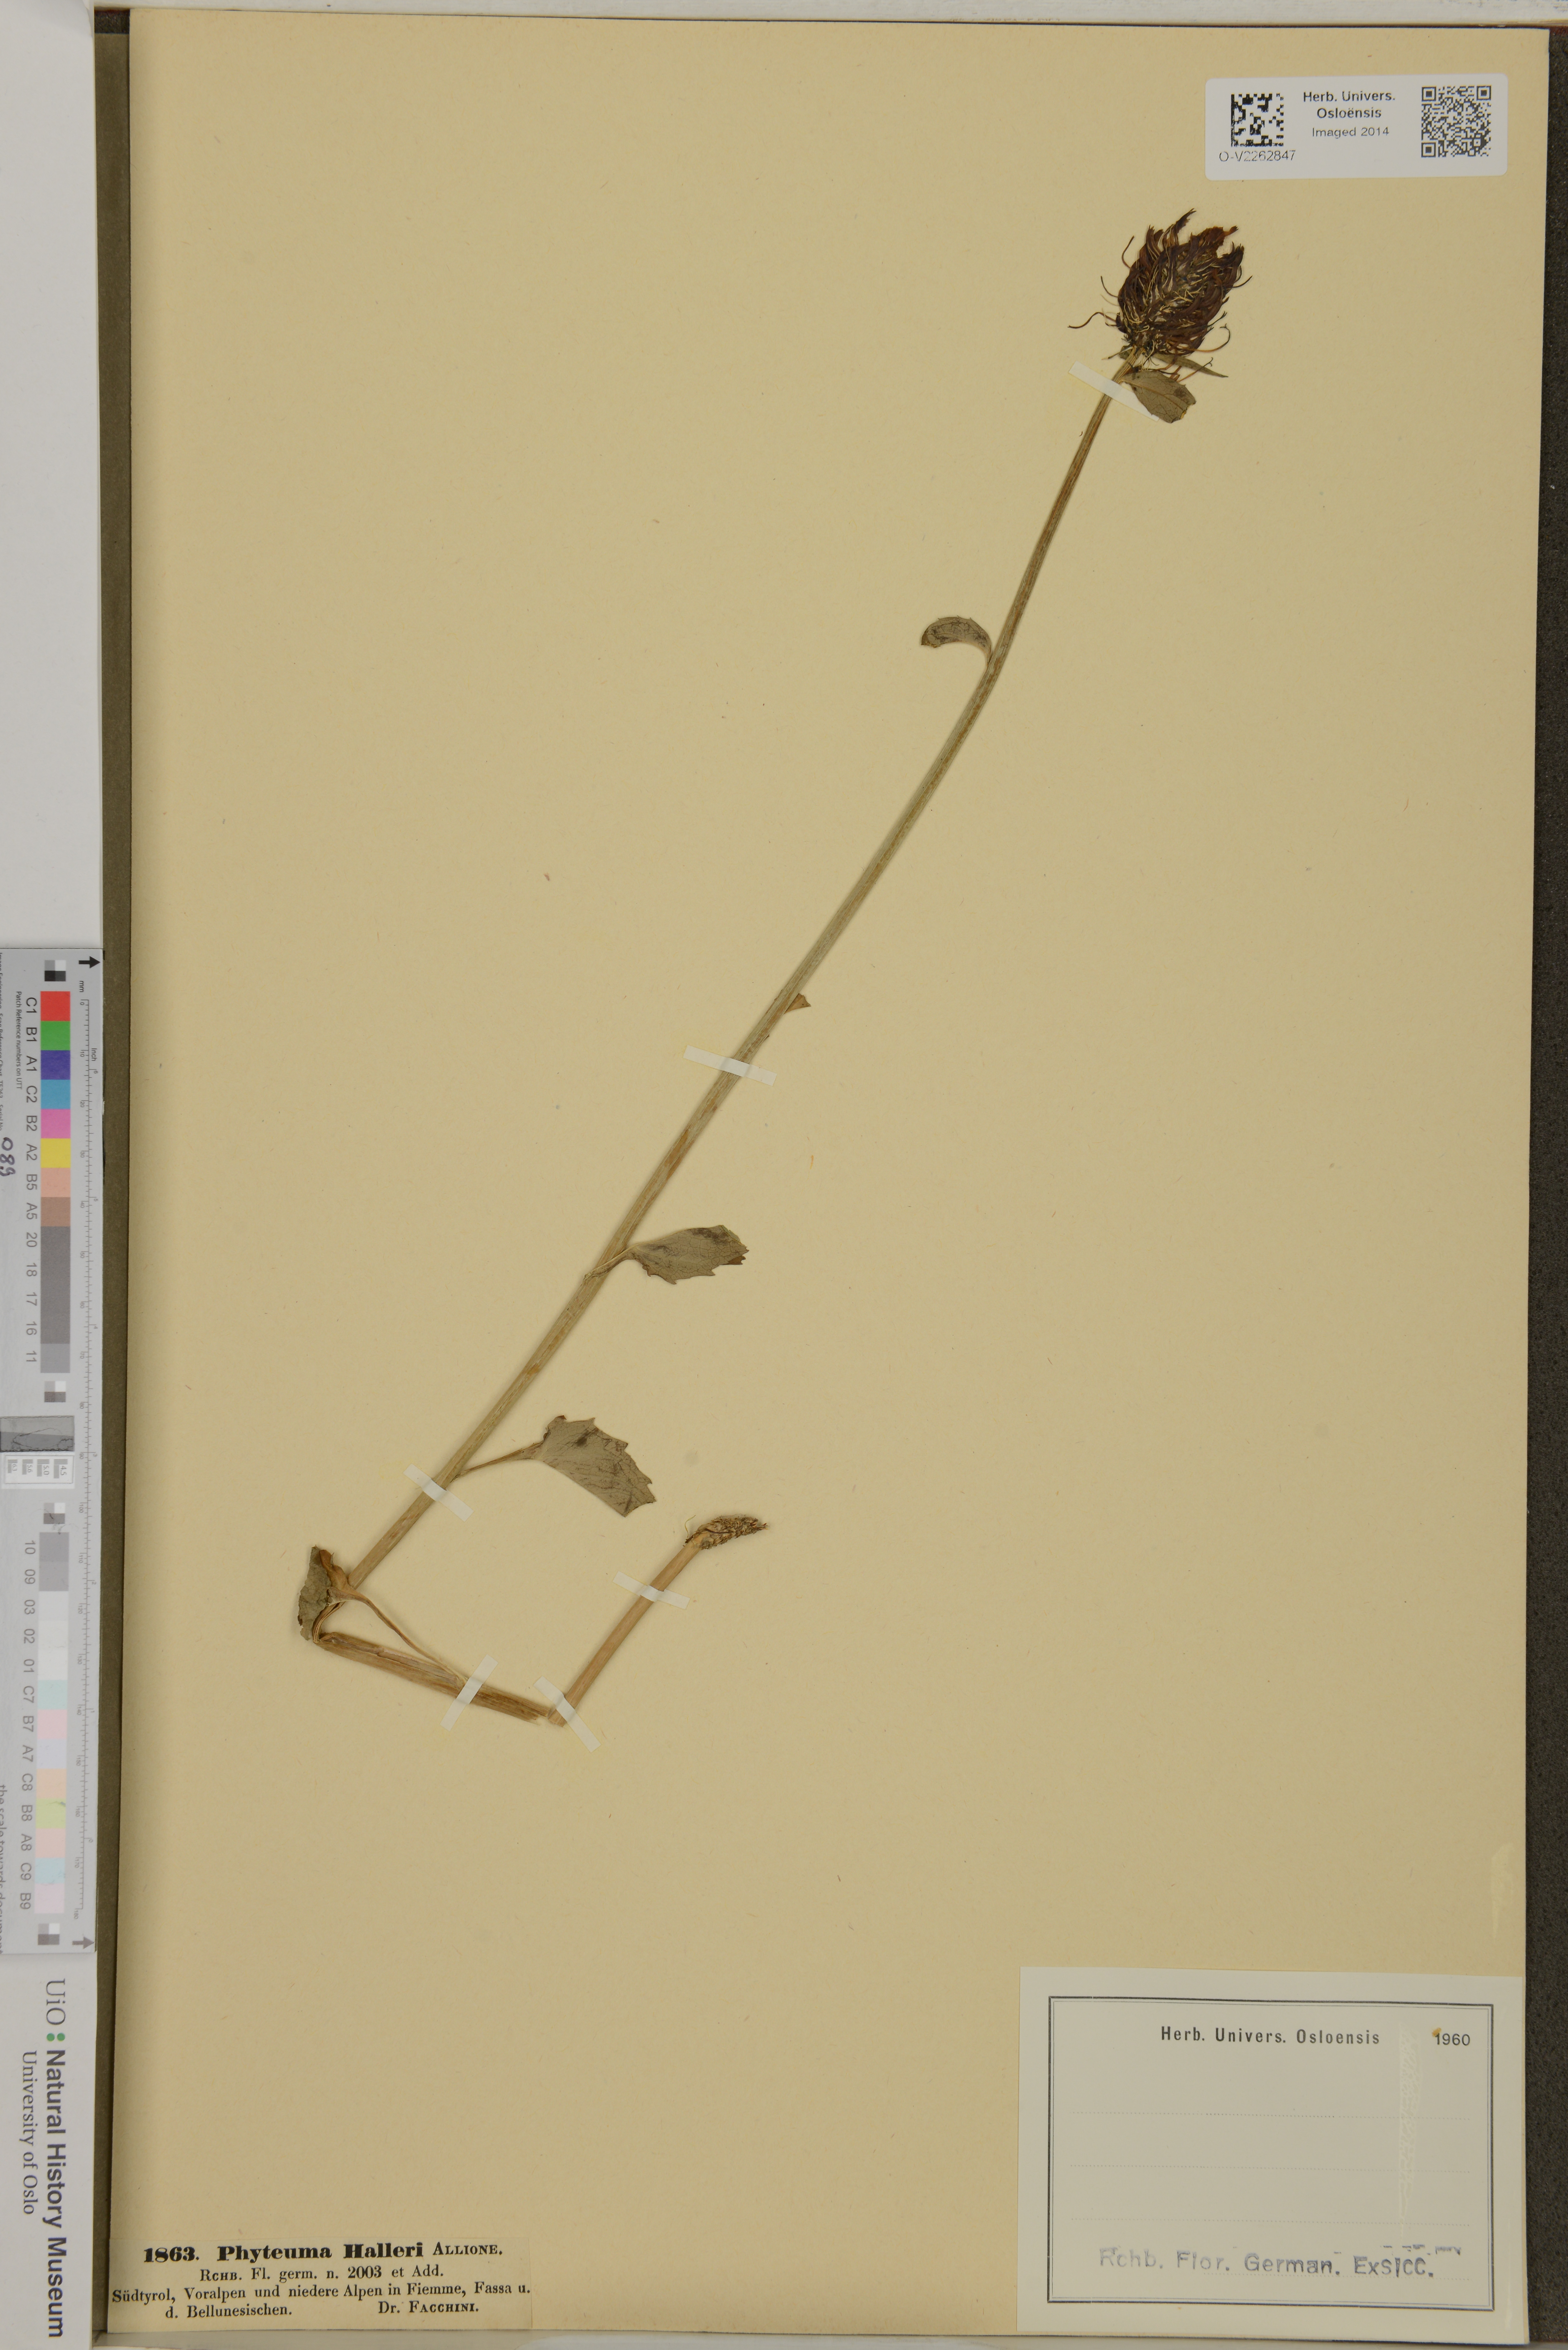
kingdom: Plantae
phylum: Tracheophyta
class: Magnoliopsida
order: Asterales
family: Campanulaceae
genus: Phyteuma
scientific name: Phyteuma halleri
